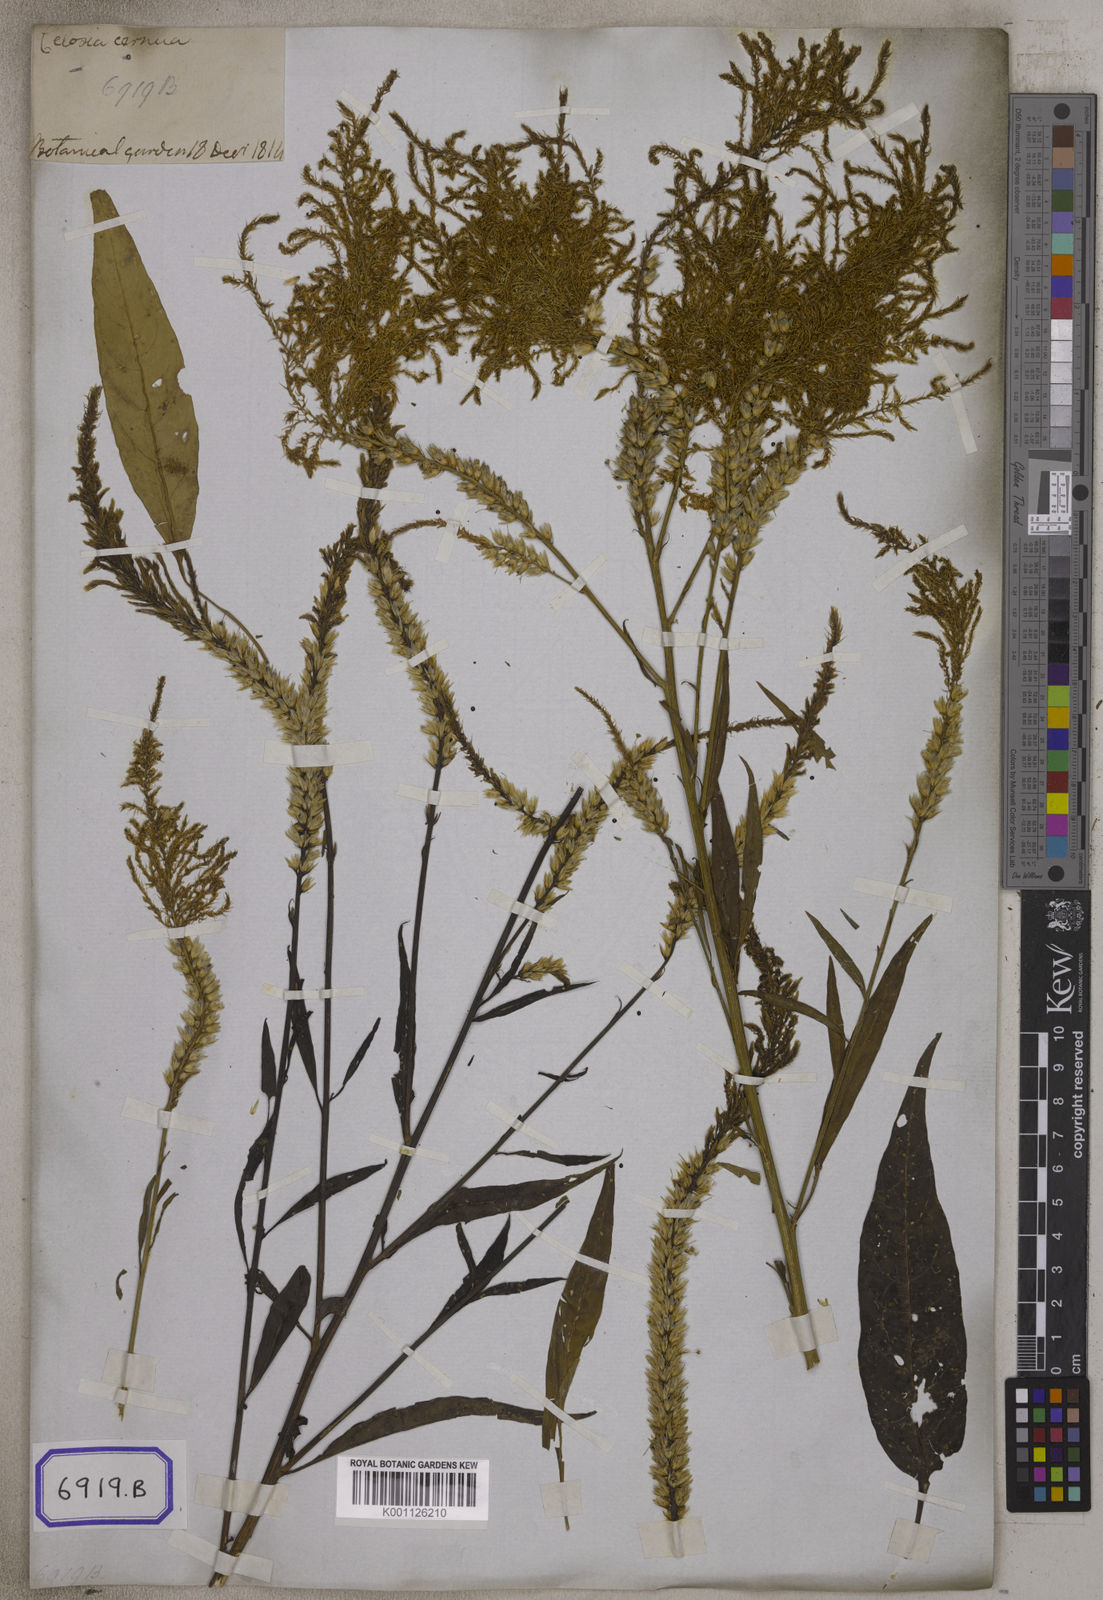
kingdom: Plantae
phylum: Tracheophyta
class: Magnoliopsida
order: Caryophyllales
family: Amaranthaceae
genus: Celosia
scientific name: Celosia argentea
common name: Feather cockscomb
